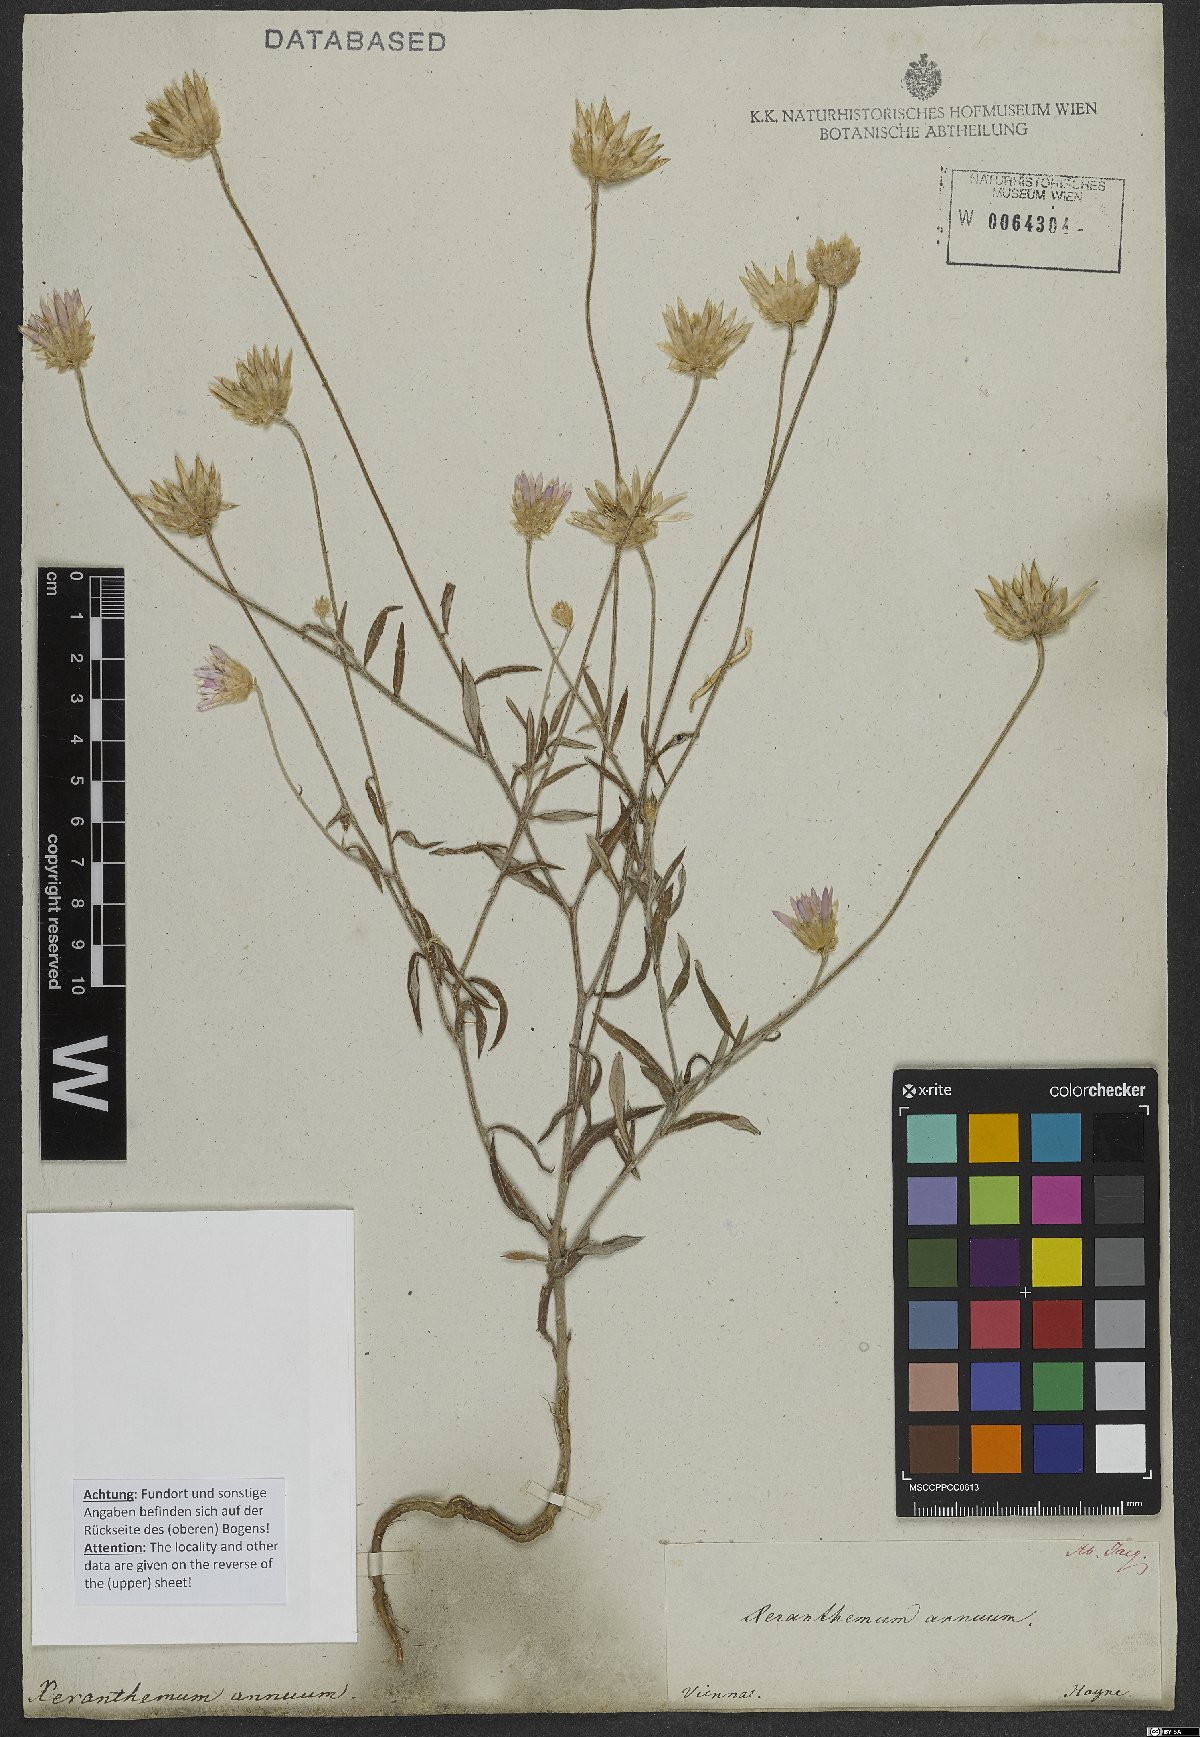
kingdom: Plantae
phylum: Tracheophyta
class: Magnoliopsida
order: Asterales
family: Asteraceae
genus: Xeranthemum
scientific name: Xeranthemum annuum
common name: Immortelle
